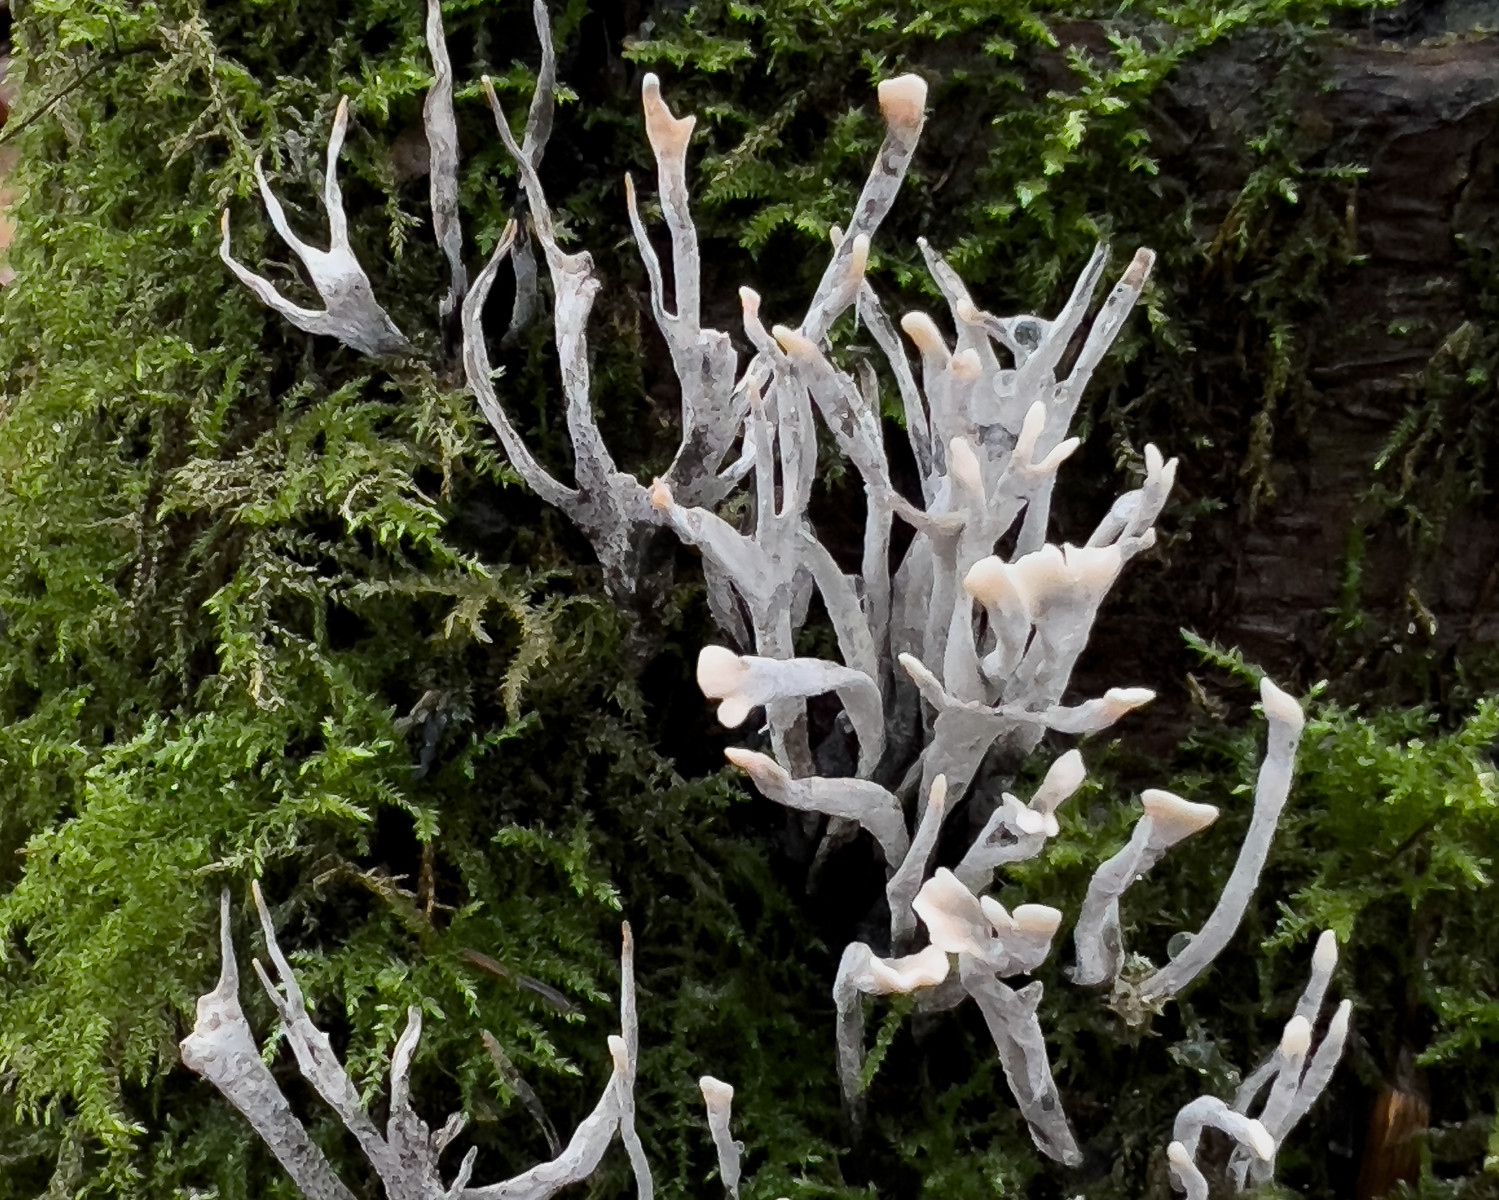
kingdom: Fungi
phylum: Ascomycota
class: Sordariomycetes
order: Xylariales
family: Xylariaceae
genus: Xylaria
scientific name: Xylaria hypoxylon
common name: grenet stødsvamp
